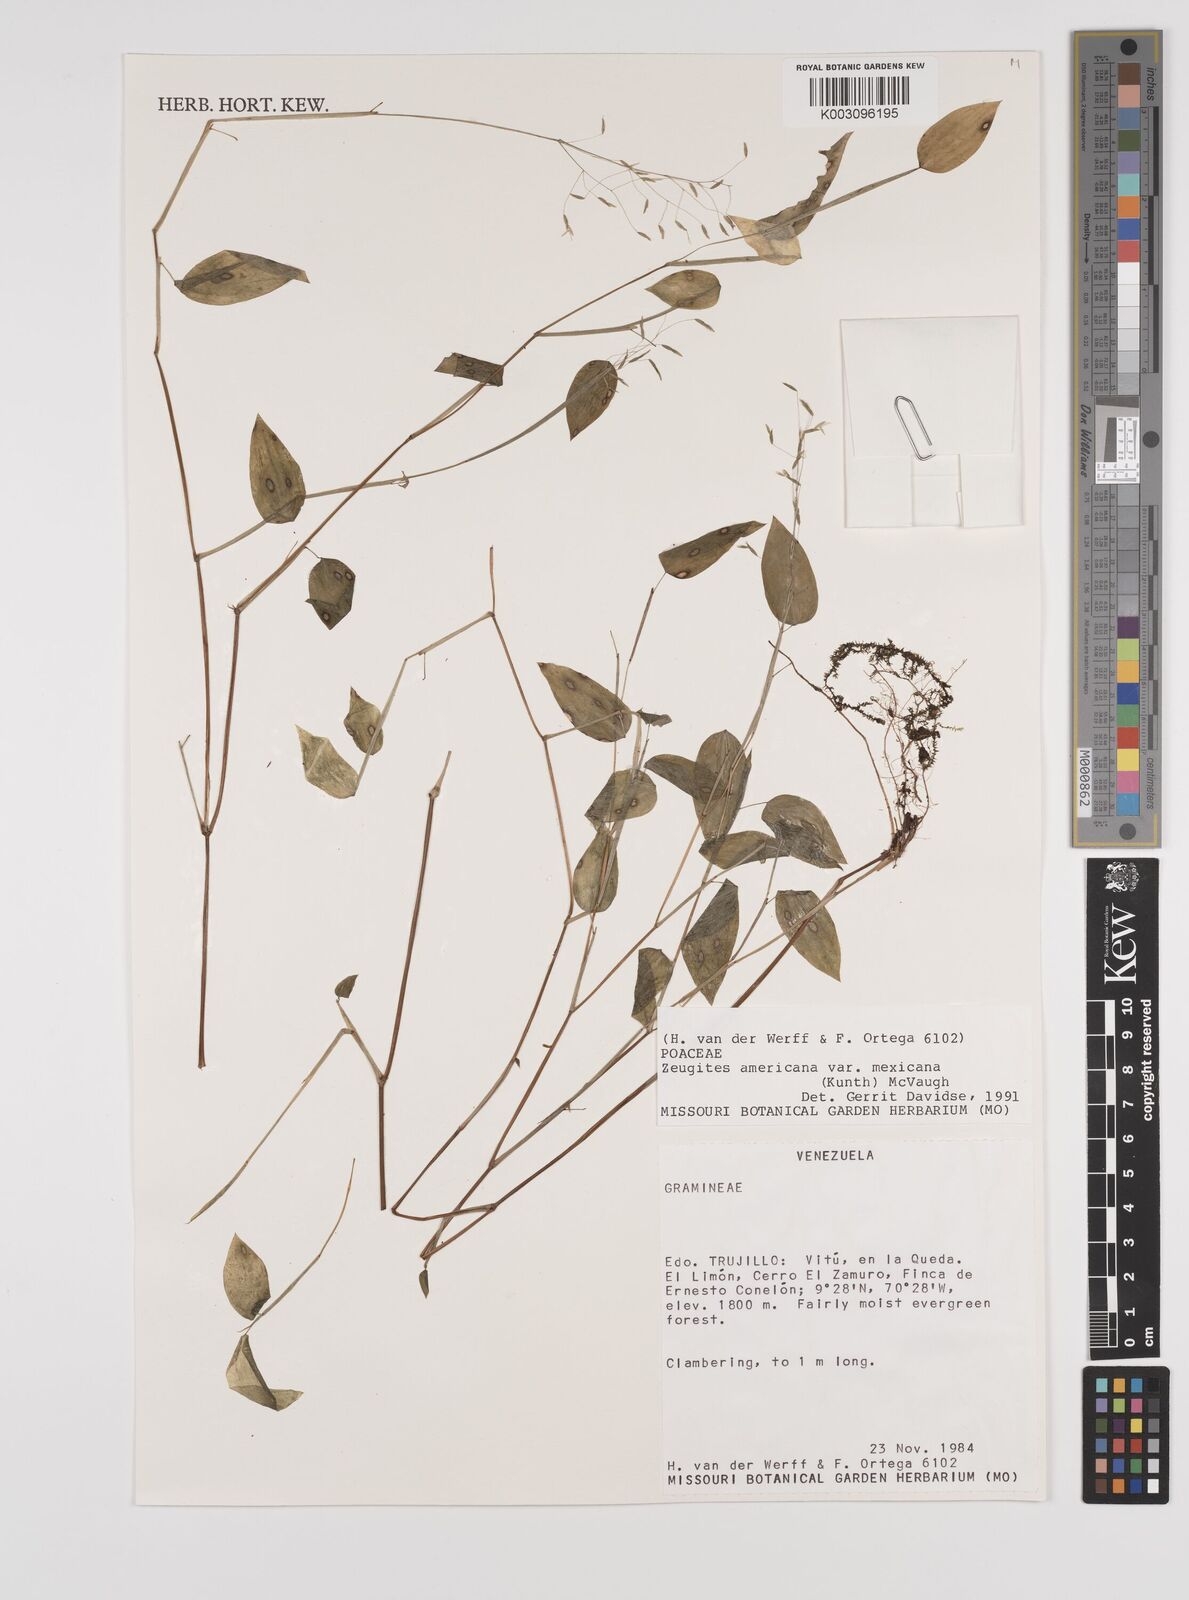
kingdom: Plantae
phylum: Tracheophyta
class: Liliopsida
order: Poales
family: Poaceae
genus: Zeugites
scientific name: Zeugites americanus
